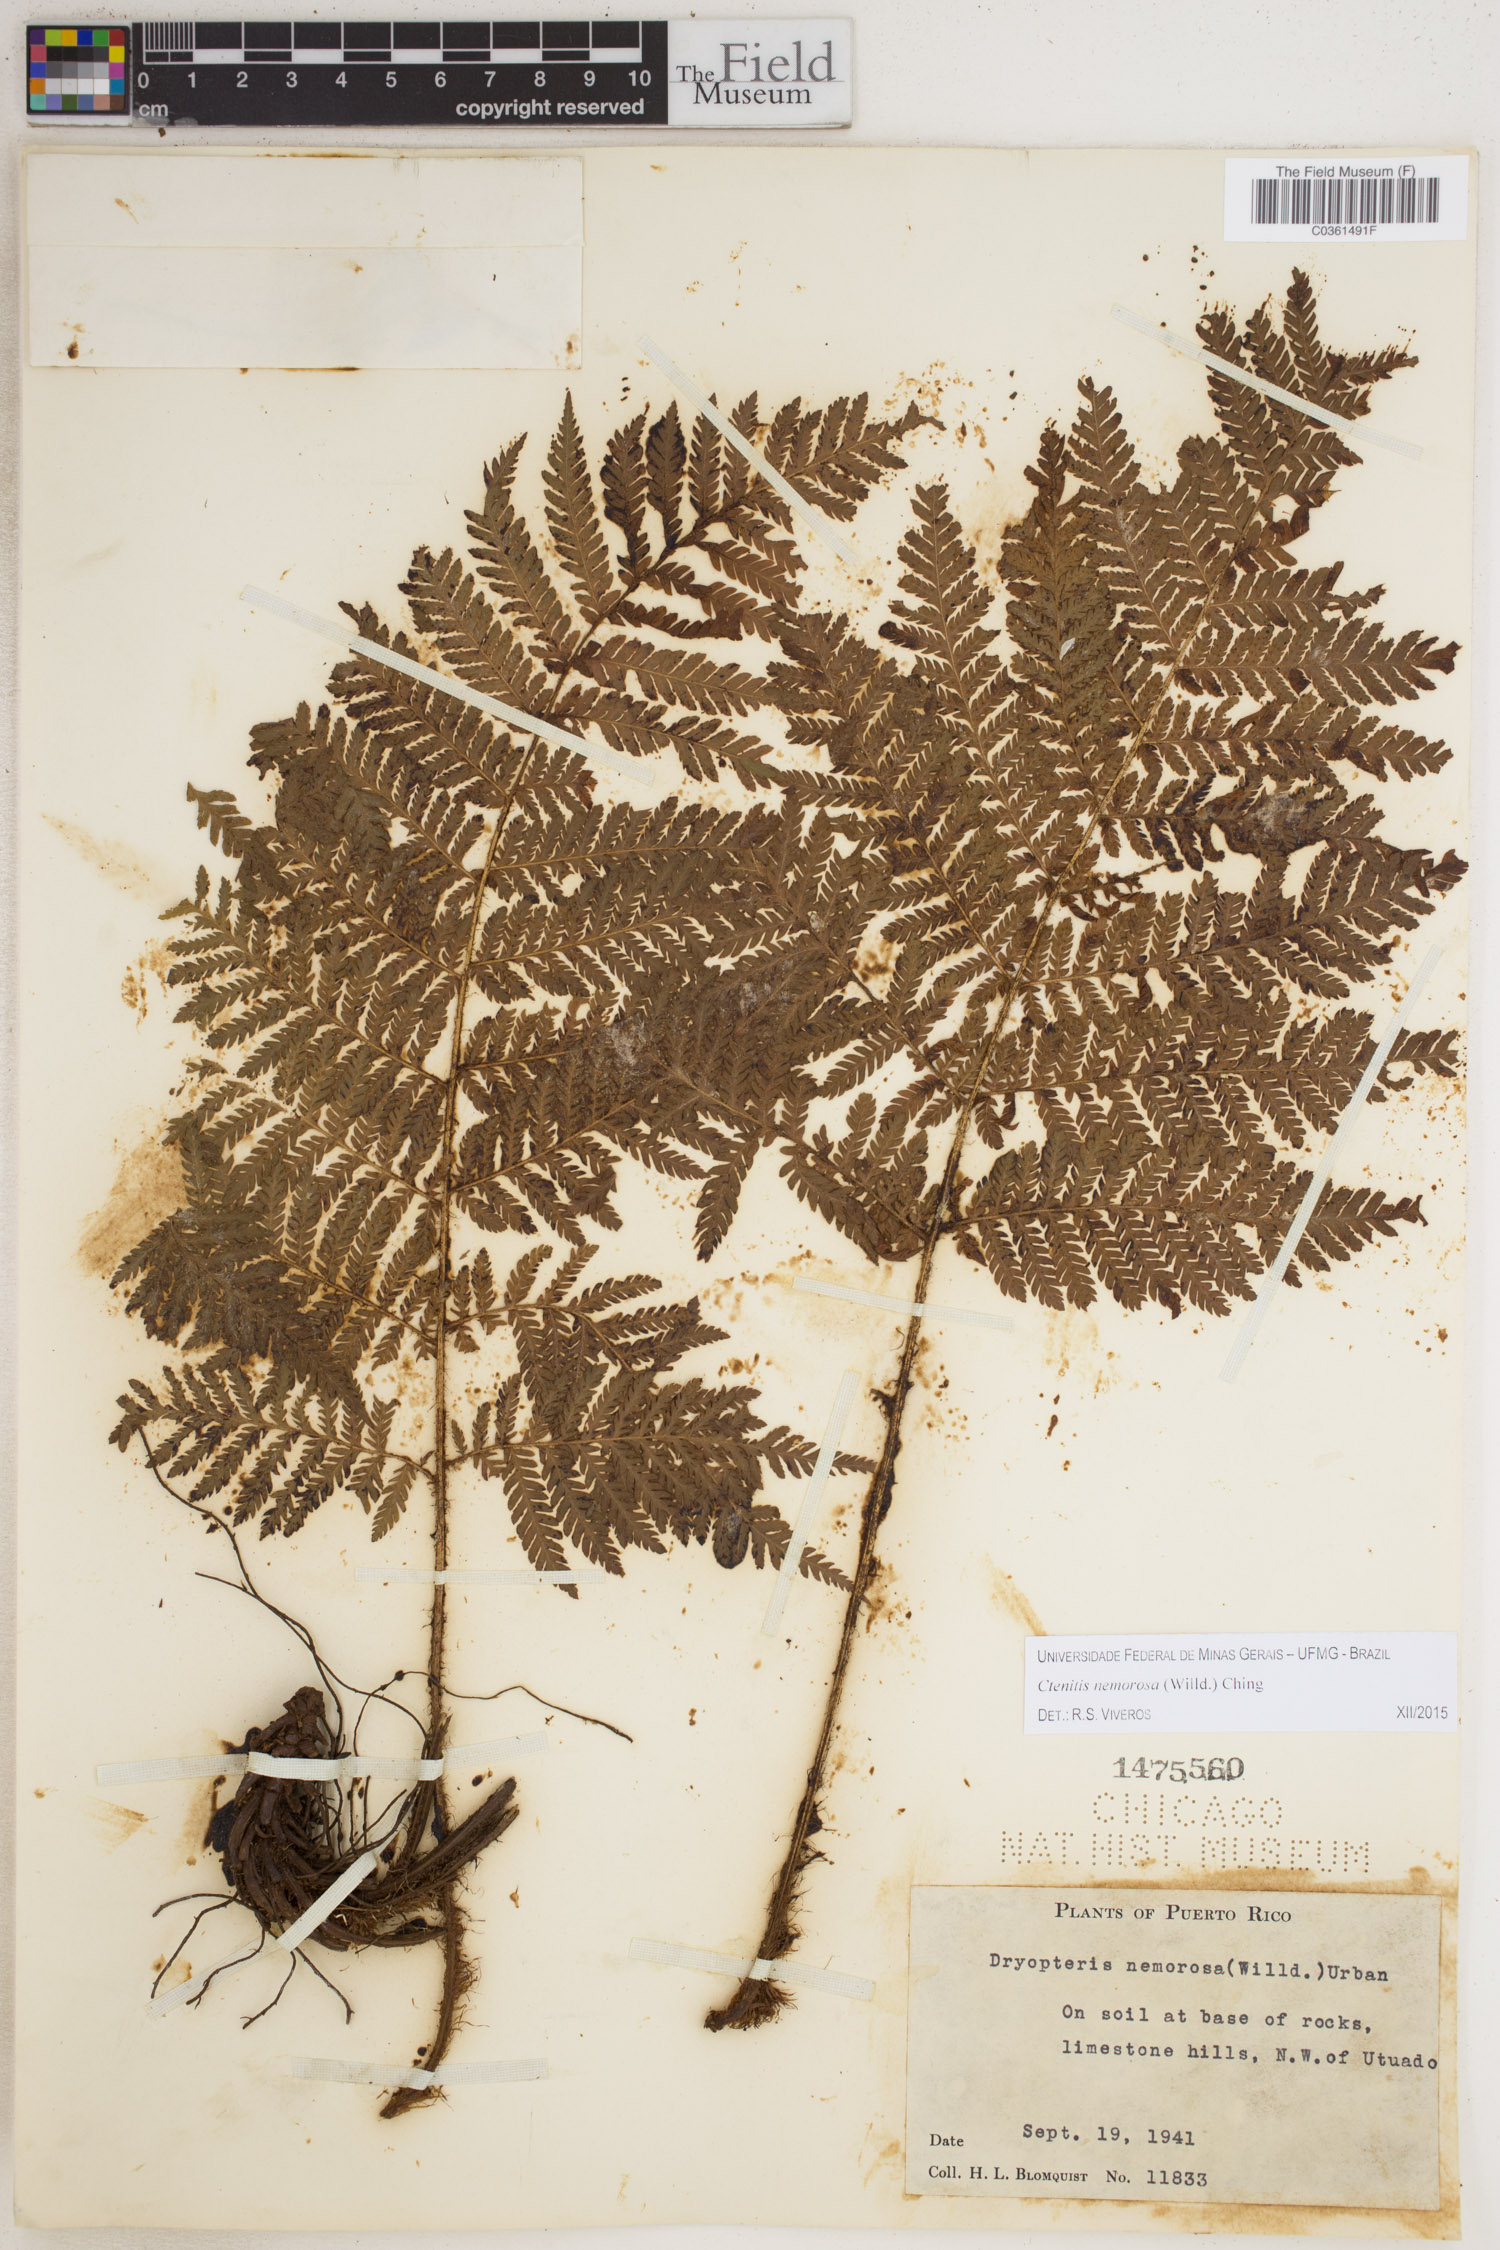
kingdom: Plantae
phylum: Tracheophyta
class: Polypodiopsida
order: Polypodiales
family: Dryopteridaceae
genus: Ctenitis
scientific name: Ctenitis nemorosa
